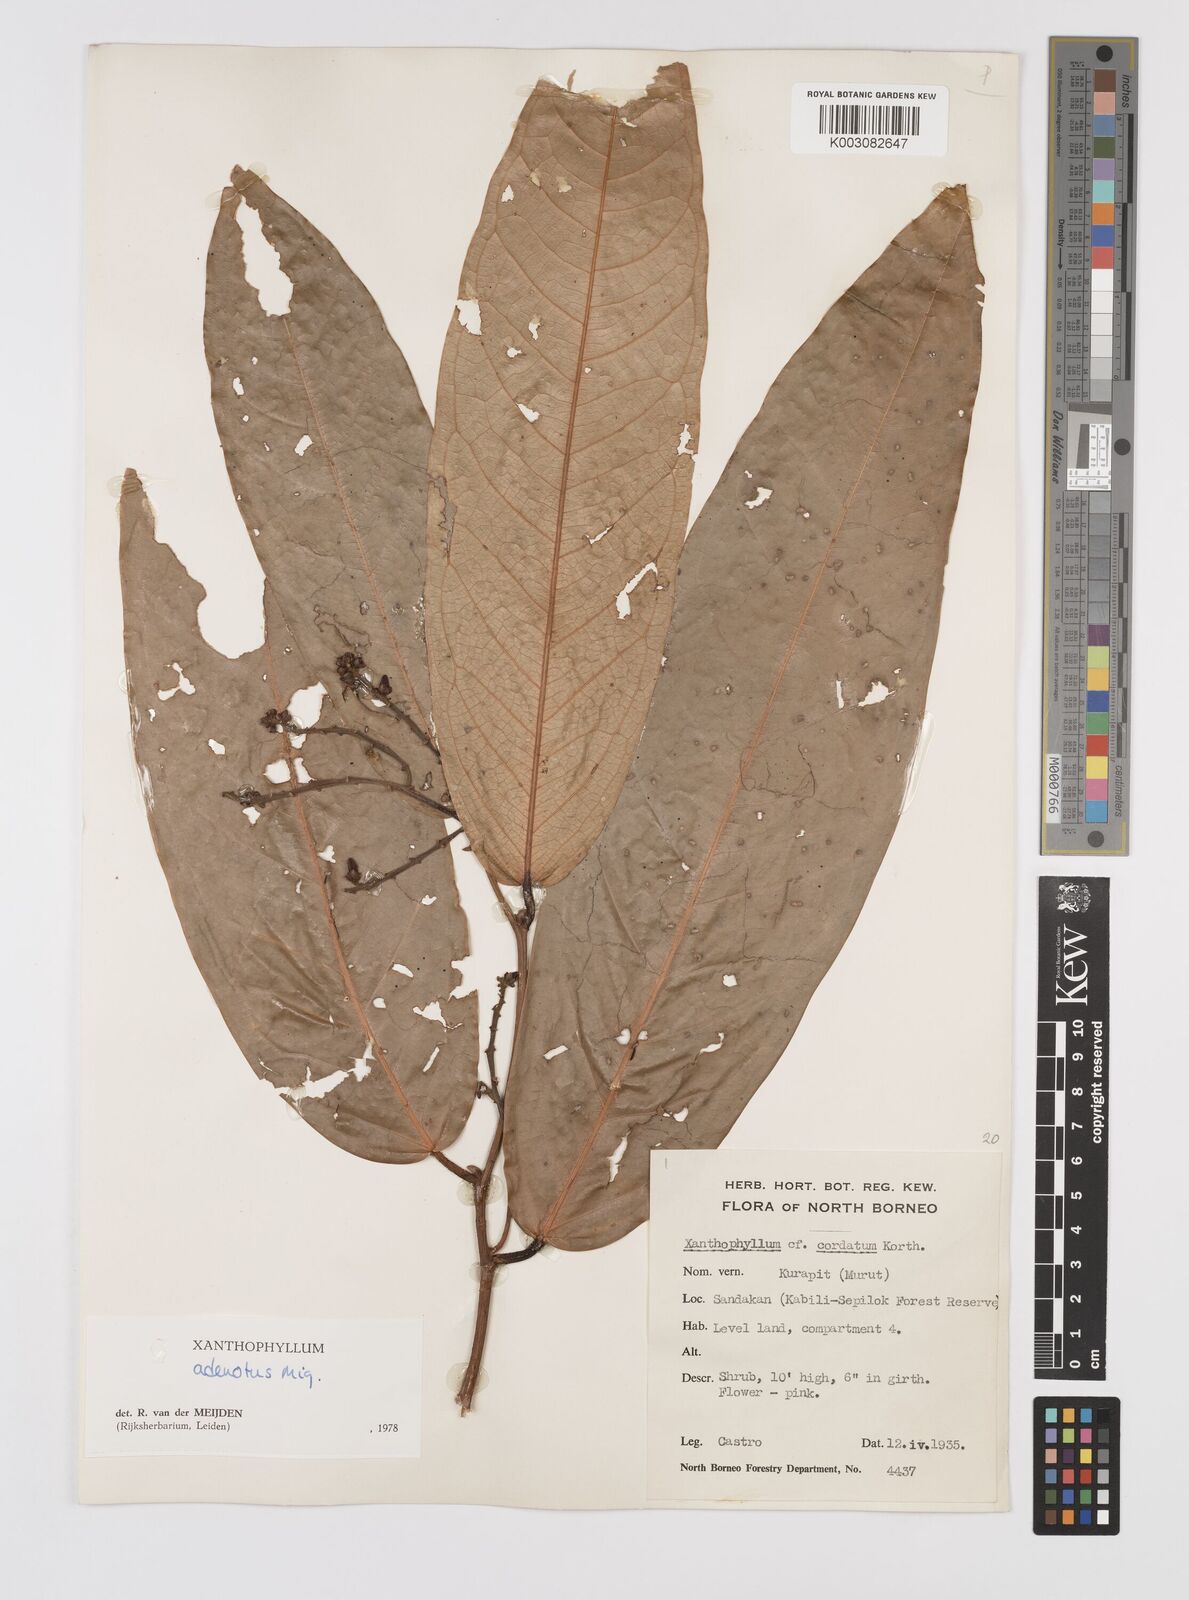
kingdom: Plantae
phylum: Tracheophyta
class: Magnoliopsida
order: Fabales
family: Polygalaceae
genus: Xanthophyllum
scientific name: Xanthophyllum adenotus
